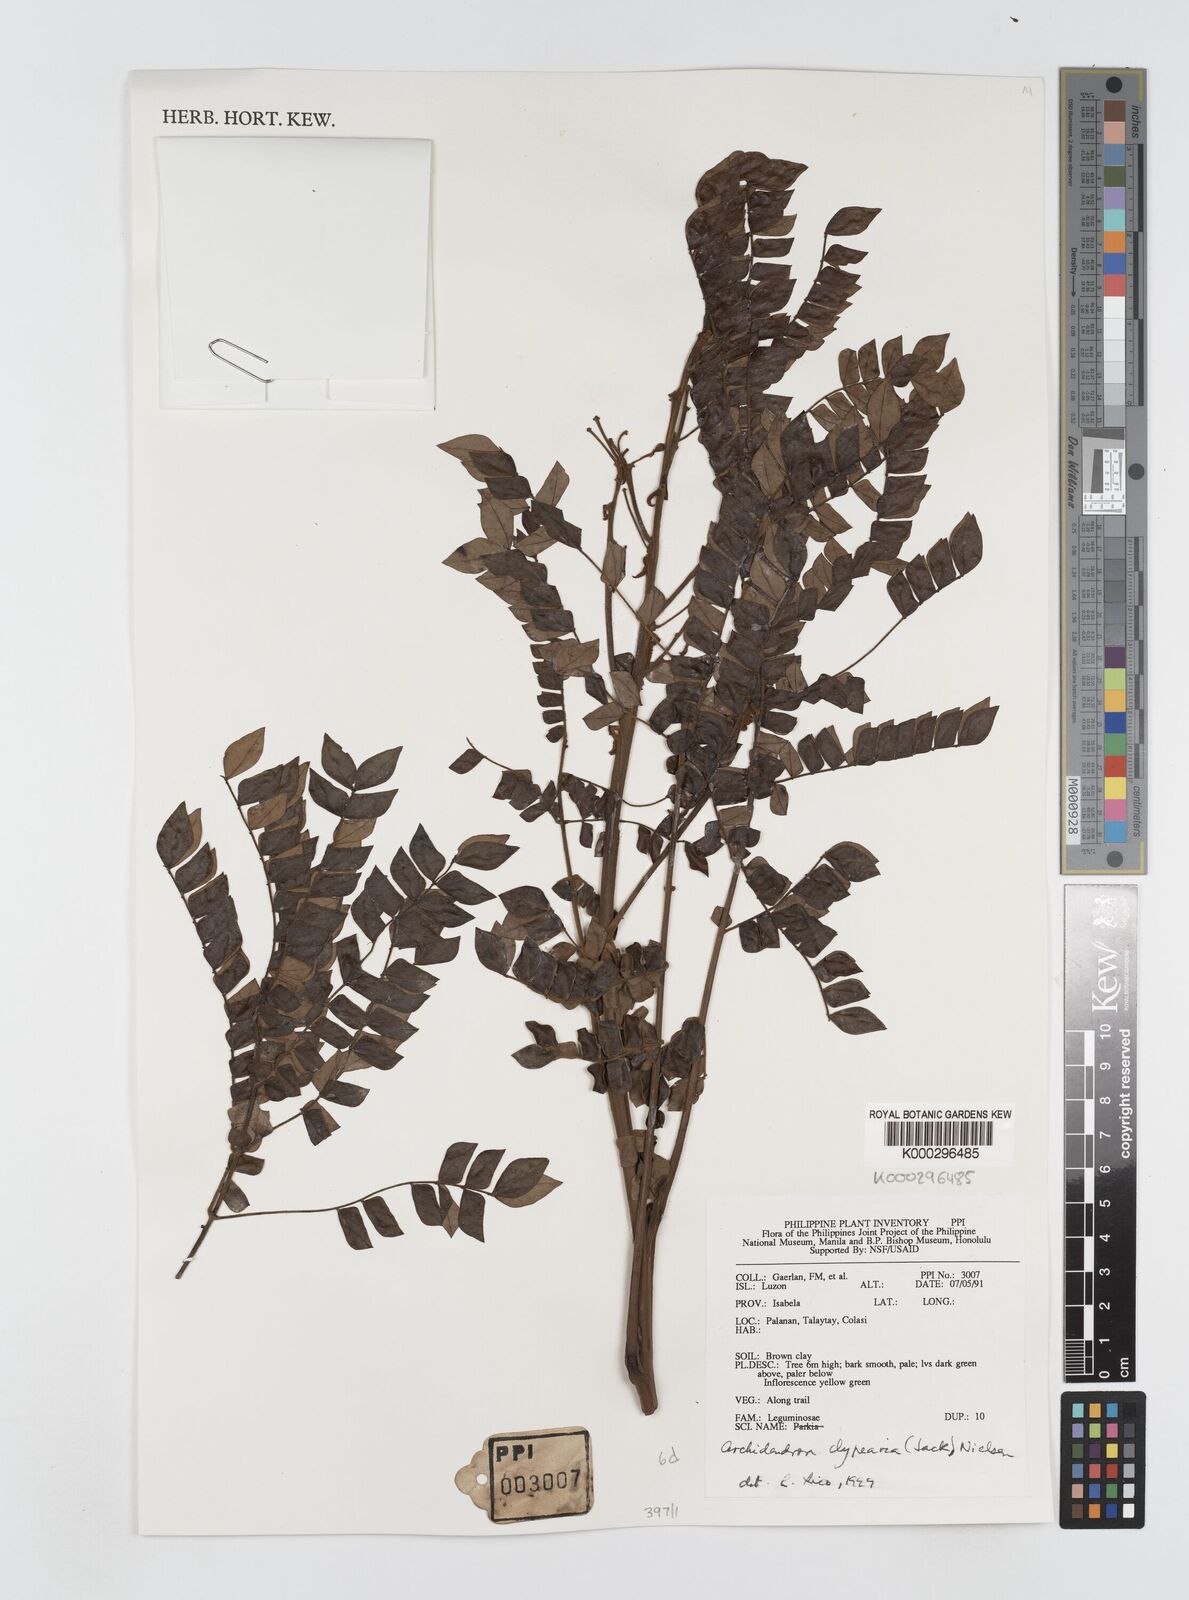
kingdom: Plantae
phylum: Tracheophyta
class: Magnoliopsida
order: Fabales
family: Fabaceae
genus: Archidendron
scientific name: Archidendron clypearia
